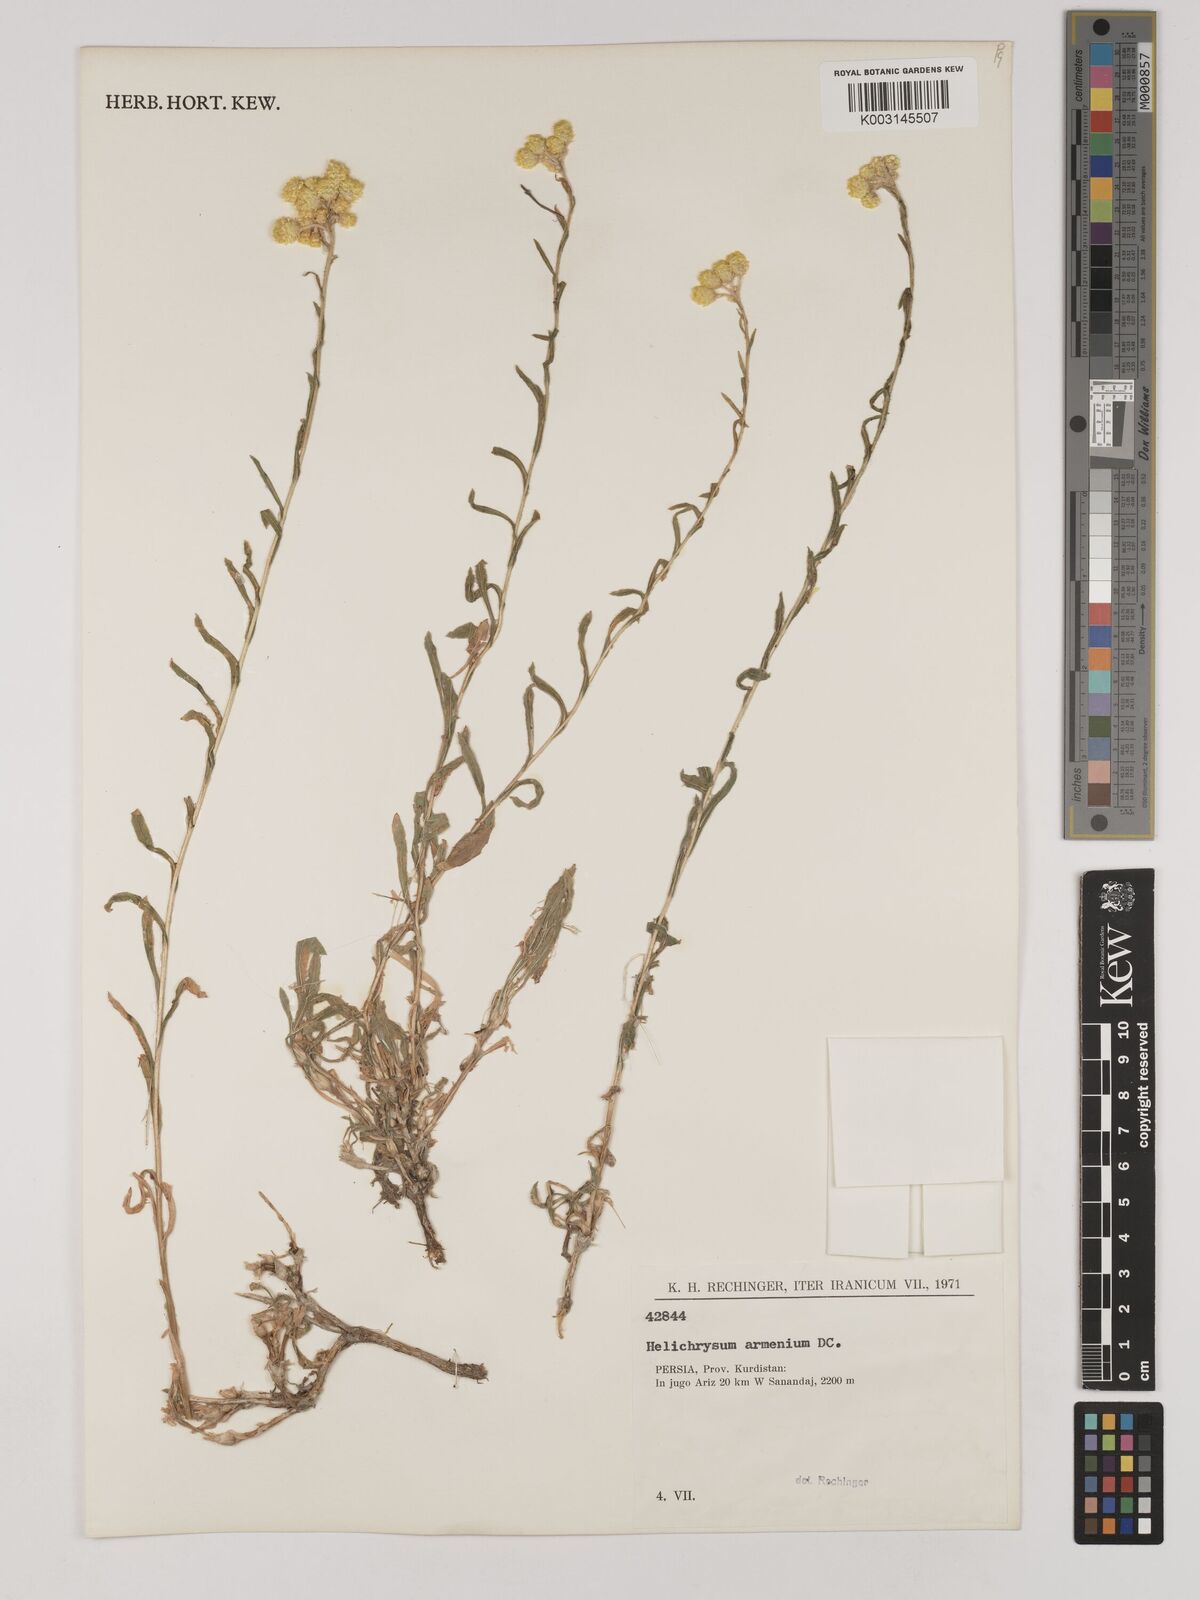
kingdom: Plantae
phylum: Tracheophyta
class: Magnoliopsida
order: Asterales
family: Asteraceae
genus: Helichrysum
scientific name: Helichrysum armenium
